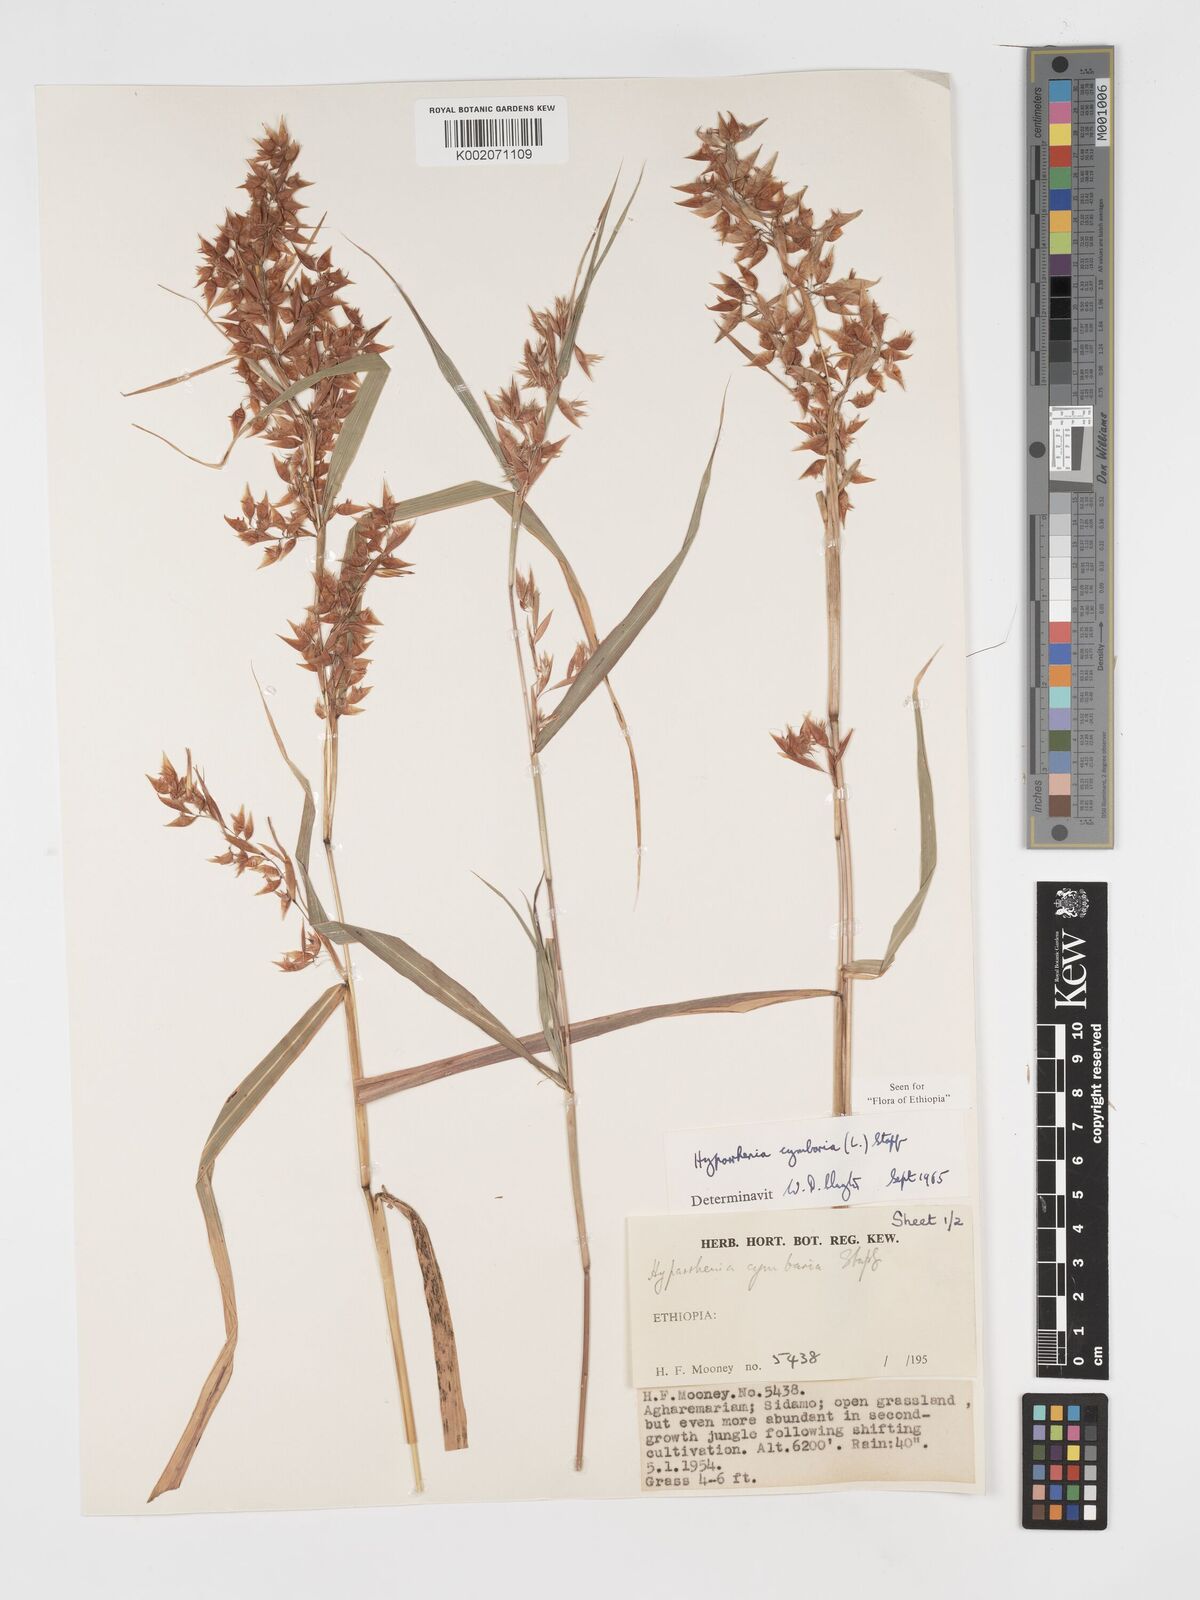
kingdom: Plantae
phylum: Tracheophyta
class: Liliopsida
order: Poales
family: Poaceae
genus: Hyparrhenia
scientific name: Hyparrhenia cymbaria
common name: Boat thatching grass
